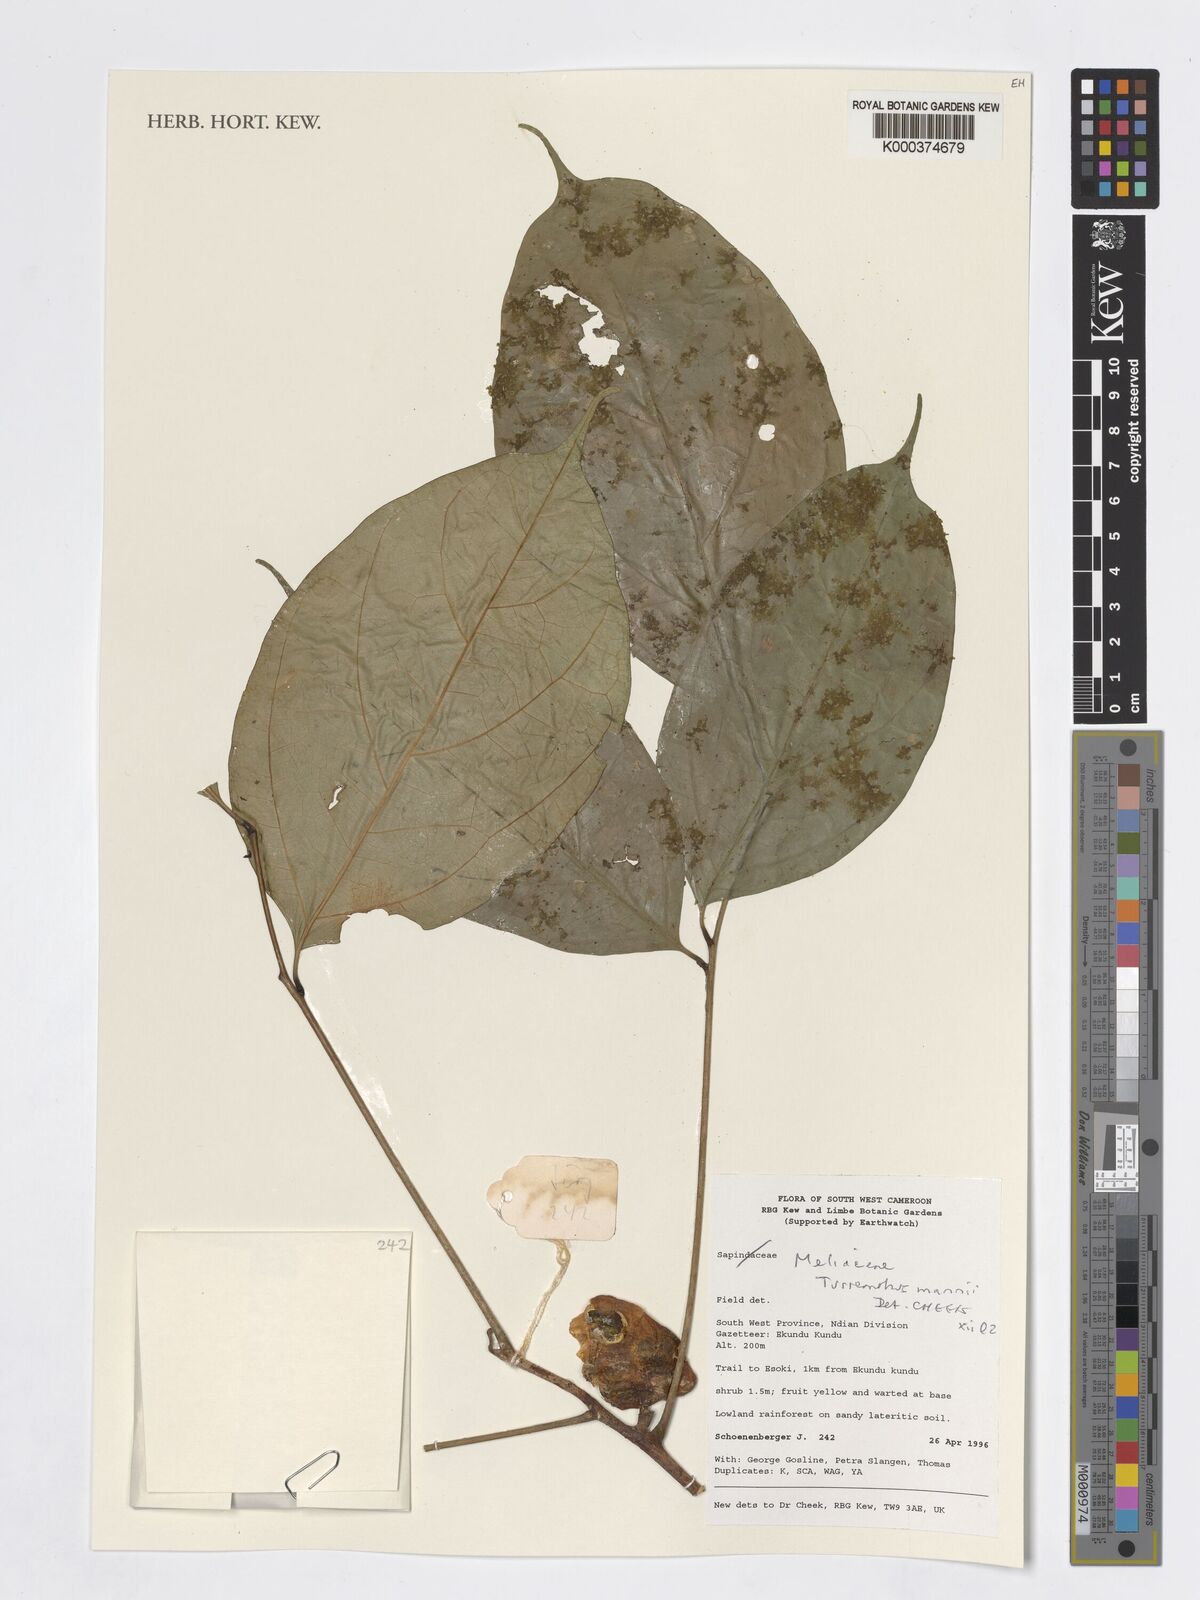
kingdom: Plantae
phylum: Tracheophyta
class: Magnoliopsida
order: Sapindales
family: Meliaceae
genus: Turraeanthus
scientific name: Turraeanthus mannii
